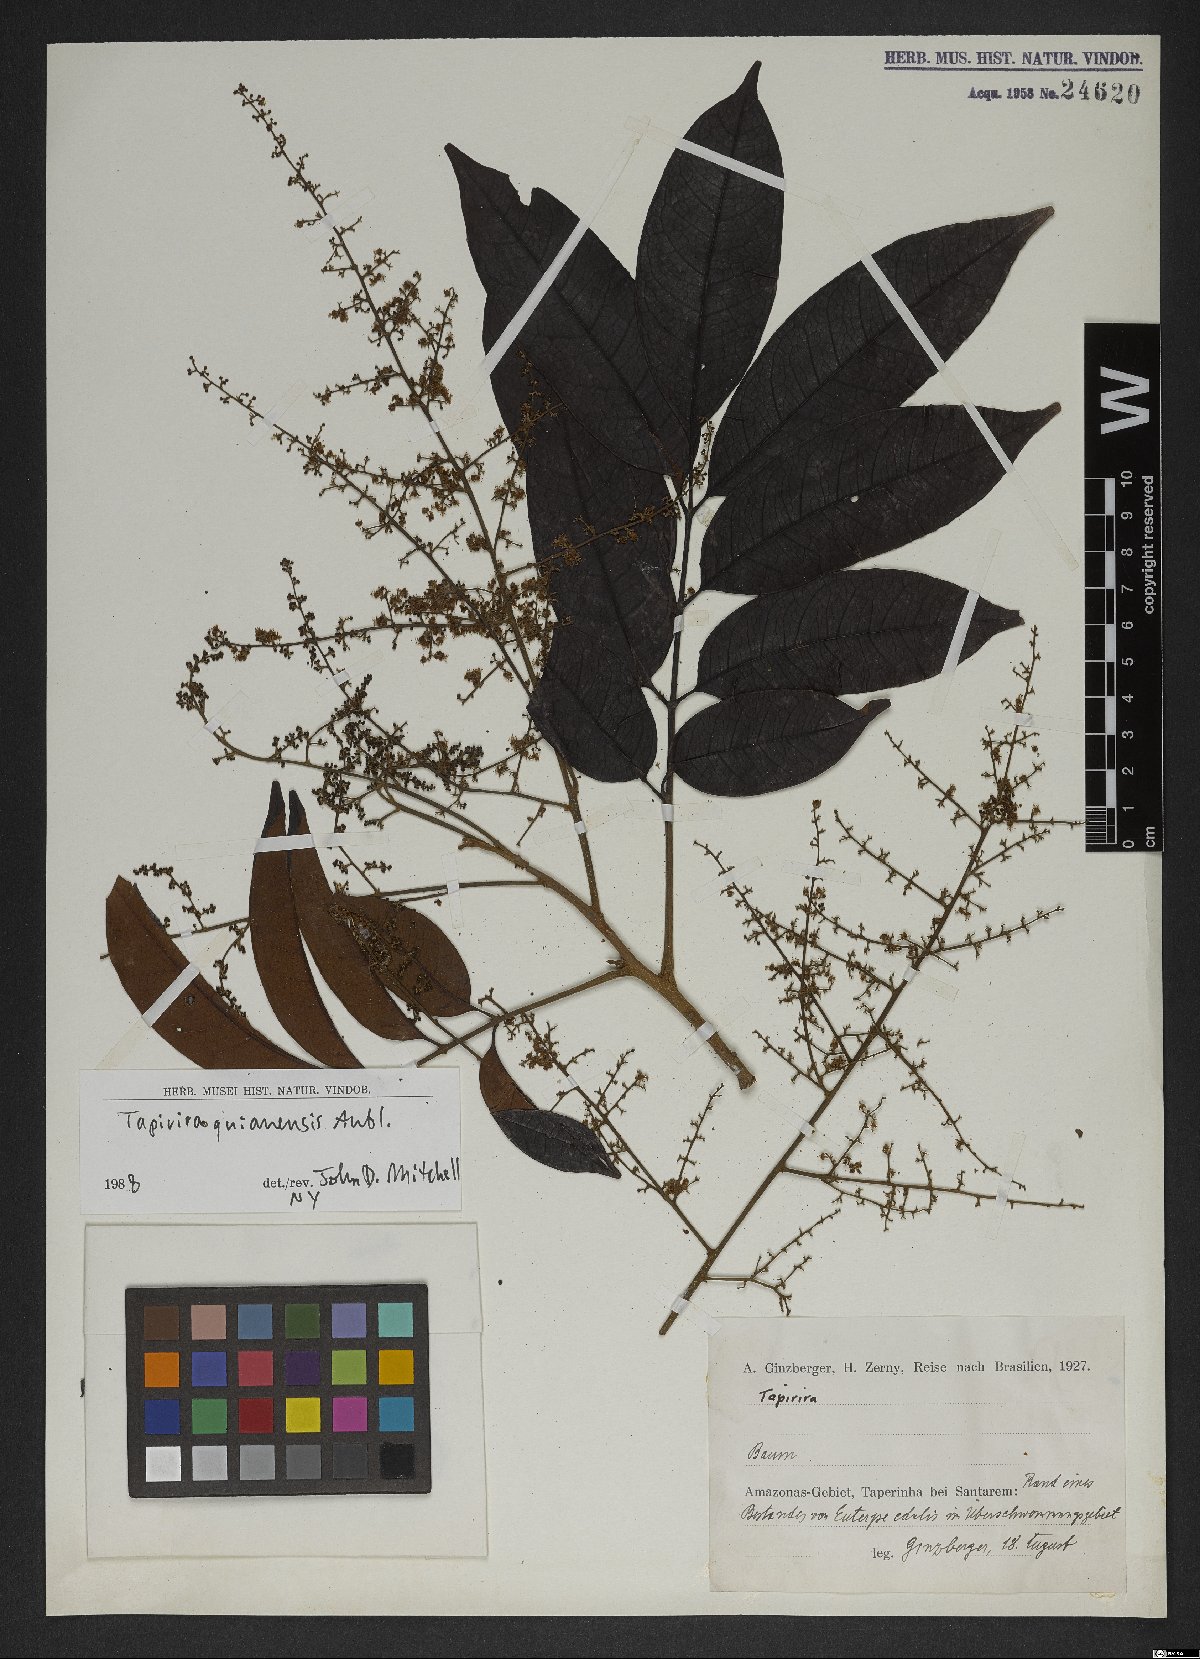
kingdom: Plantae
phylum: Tracheophyta
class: Magnoliopsida
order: Sapindales
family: Anacardiaceae
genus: Tapirira
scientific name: Tapirira guianensis
